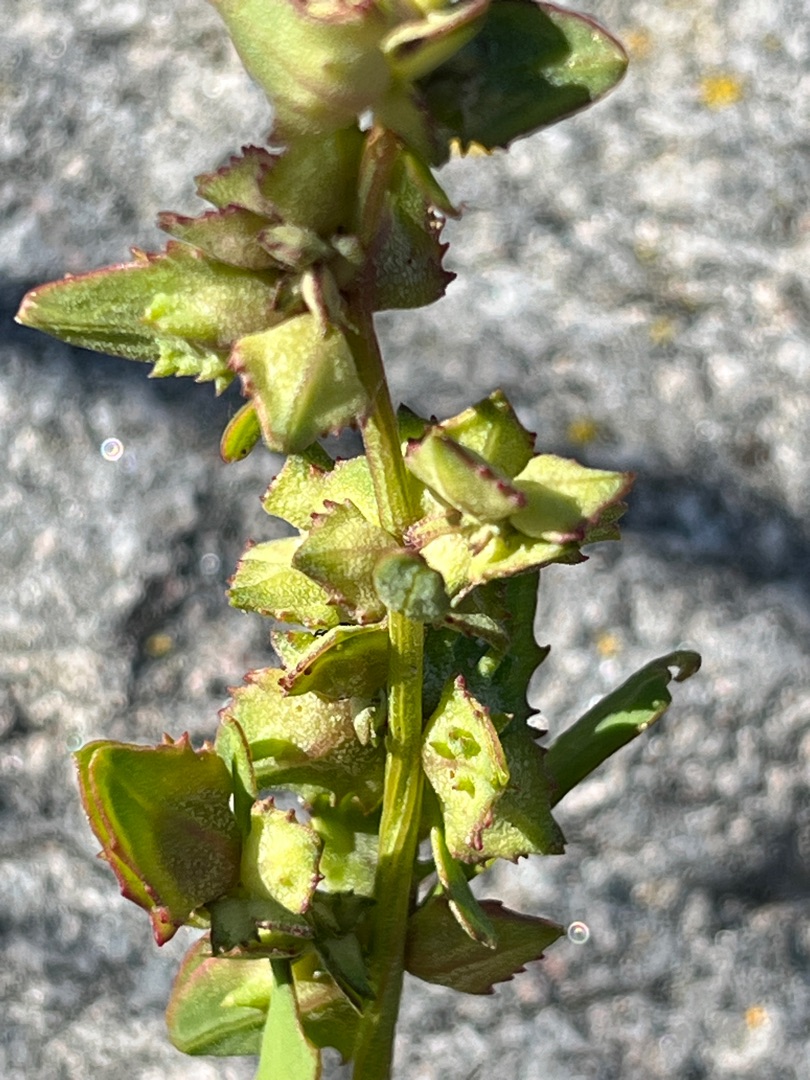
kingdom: Plantae
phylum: Tracheophyta
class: Magnoliopsida
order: Caryophyllales
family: Amaranthaceae
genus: Atriplex
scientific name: Atriplex glabriuscula
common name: Tykbladet mælde
